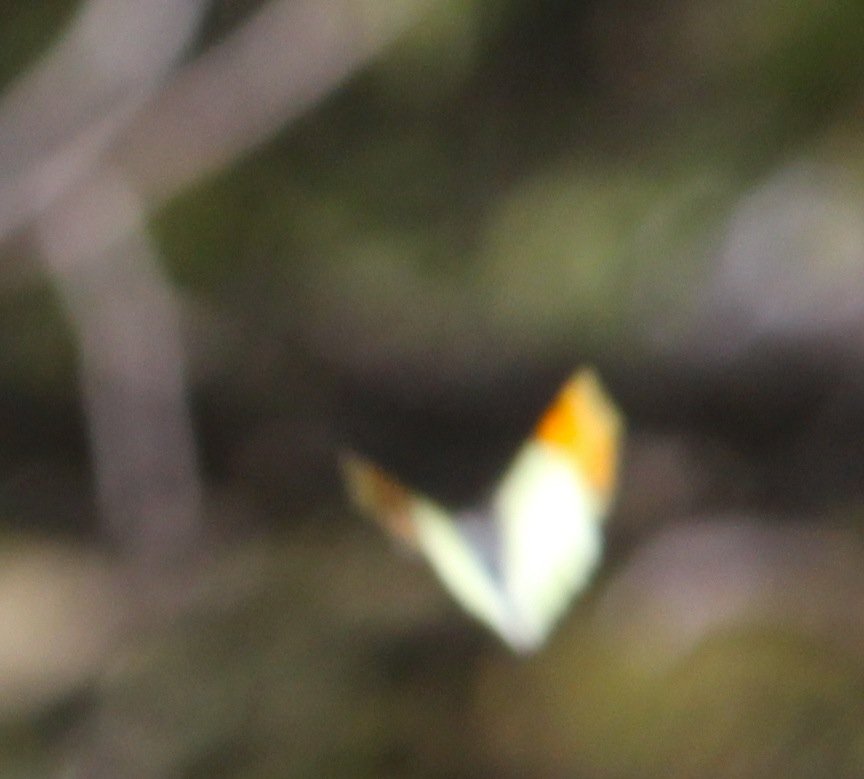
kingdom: Animalia
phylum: Arthropoda
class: Insecta
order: Lepidoptera
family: Pieridae
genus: Anthocharis
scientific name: Anthocharis sara
